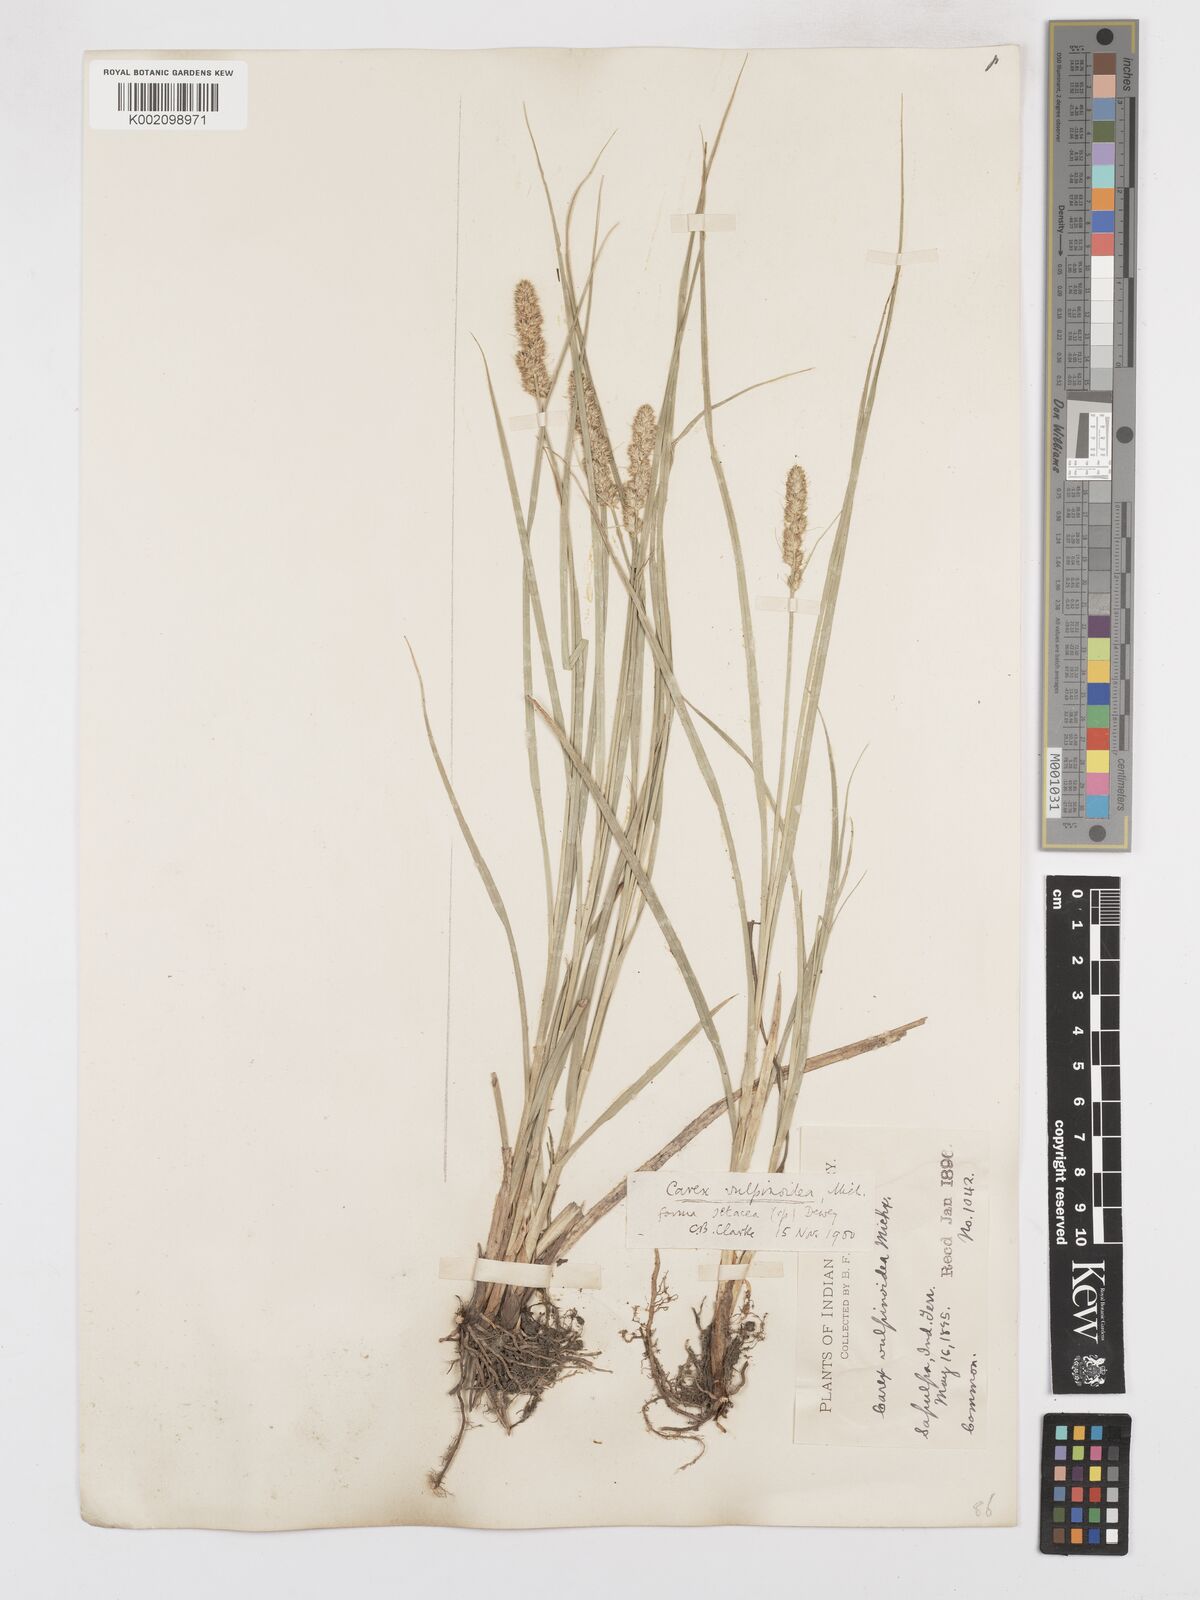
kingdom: Plantae
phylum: Tracheophyta
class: Liliopsida
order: Poales
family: Cyperaceae
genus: Carex
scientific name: Carex vulpinoidea
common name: American fox-sedge
